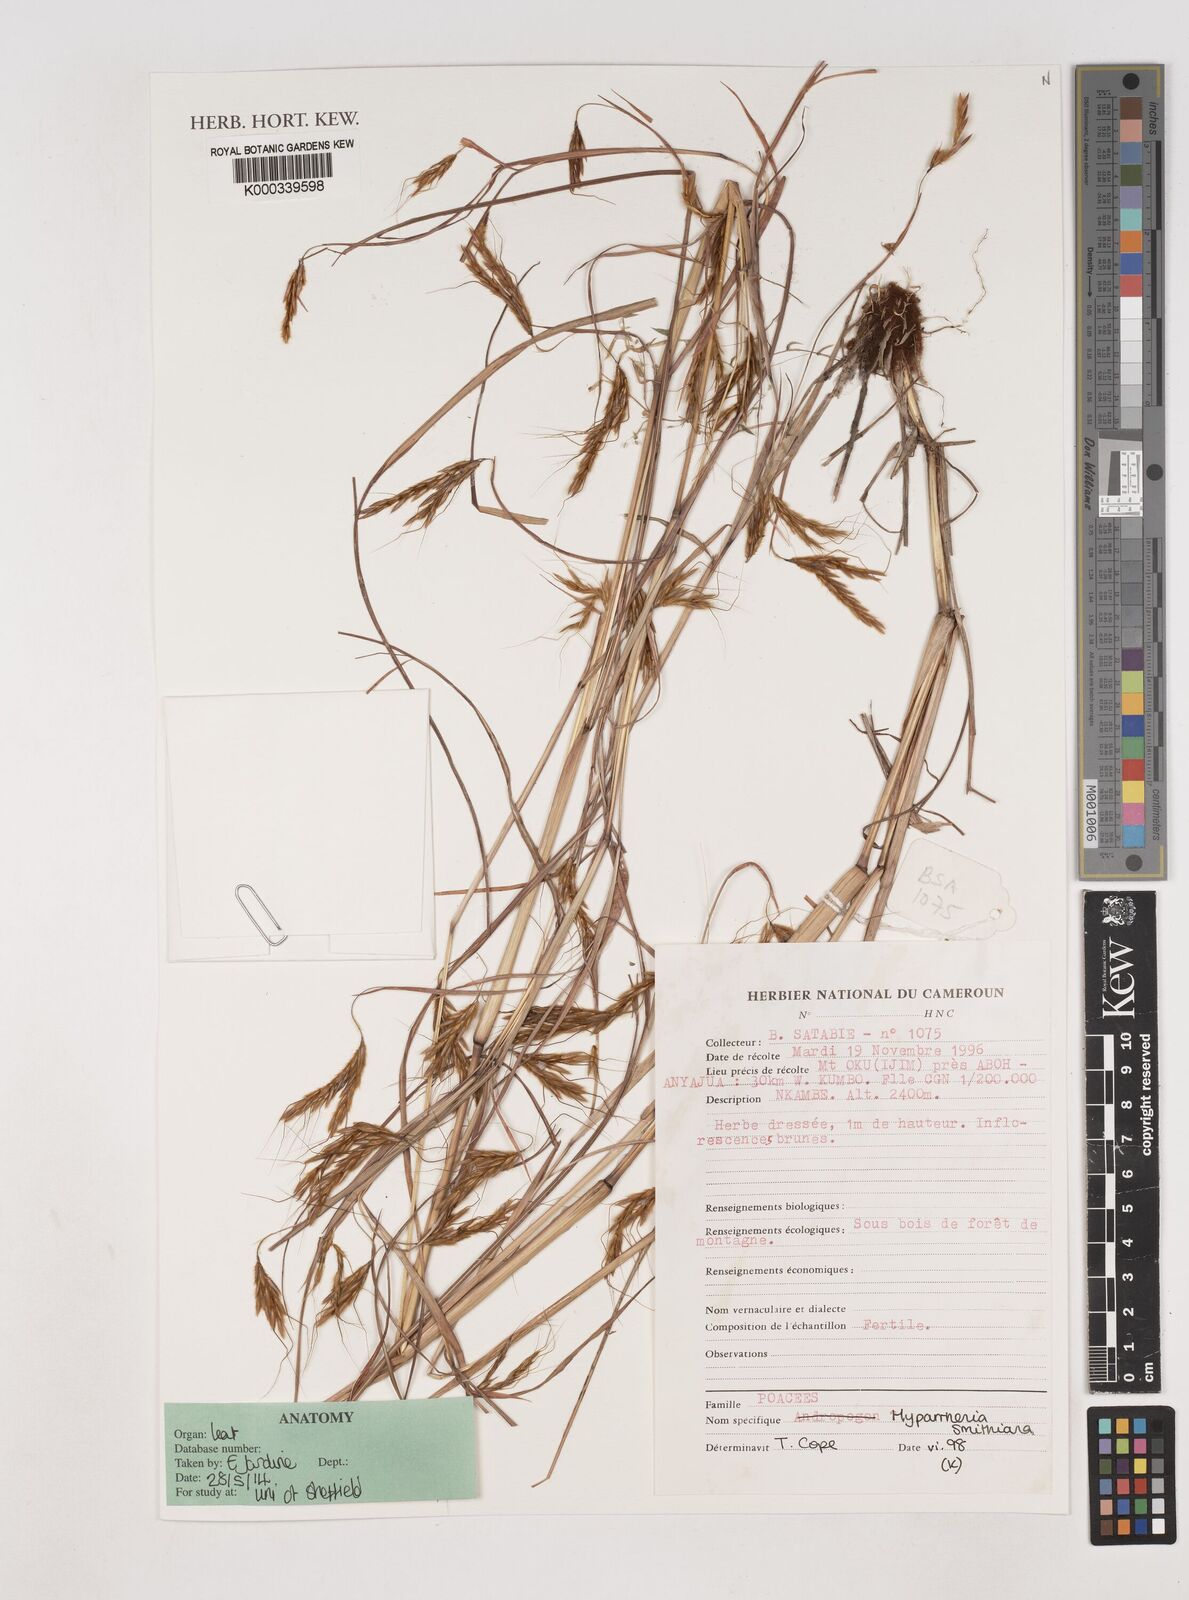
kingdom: Plantae
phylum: Tracheophyta
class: Liliopsida
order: Poales
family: Poaceae
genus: Hyparrhenia
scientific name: Hyparrhenia smithiana
